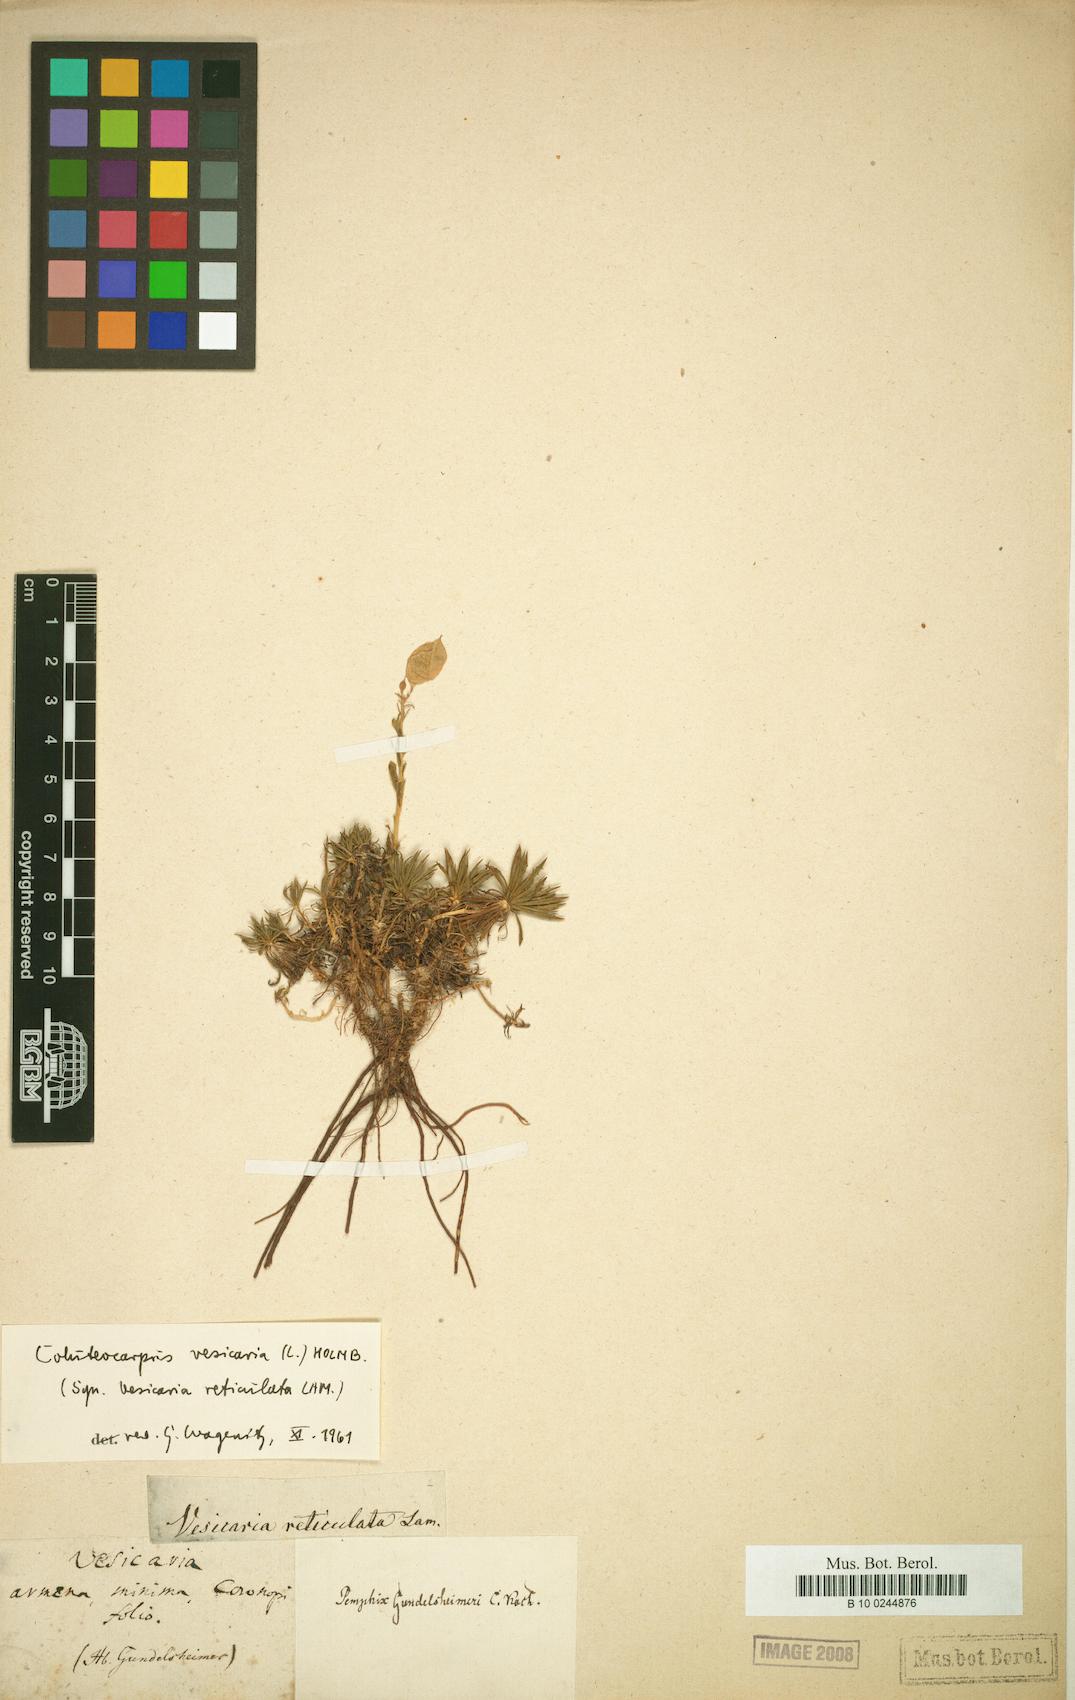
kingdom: Plantae
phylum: Tracheophyta
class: Magnoliopsida
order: Brassicales
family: Brassicaceae
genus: Noccaea
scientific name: Noccaea vesicaria
